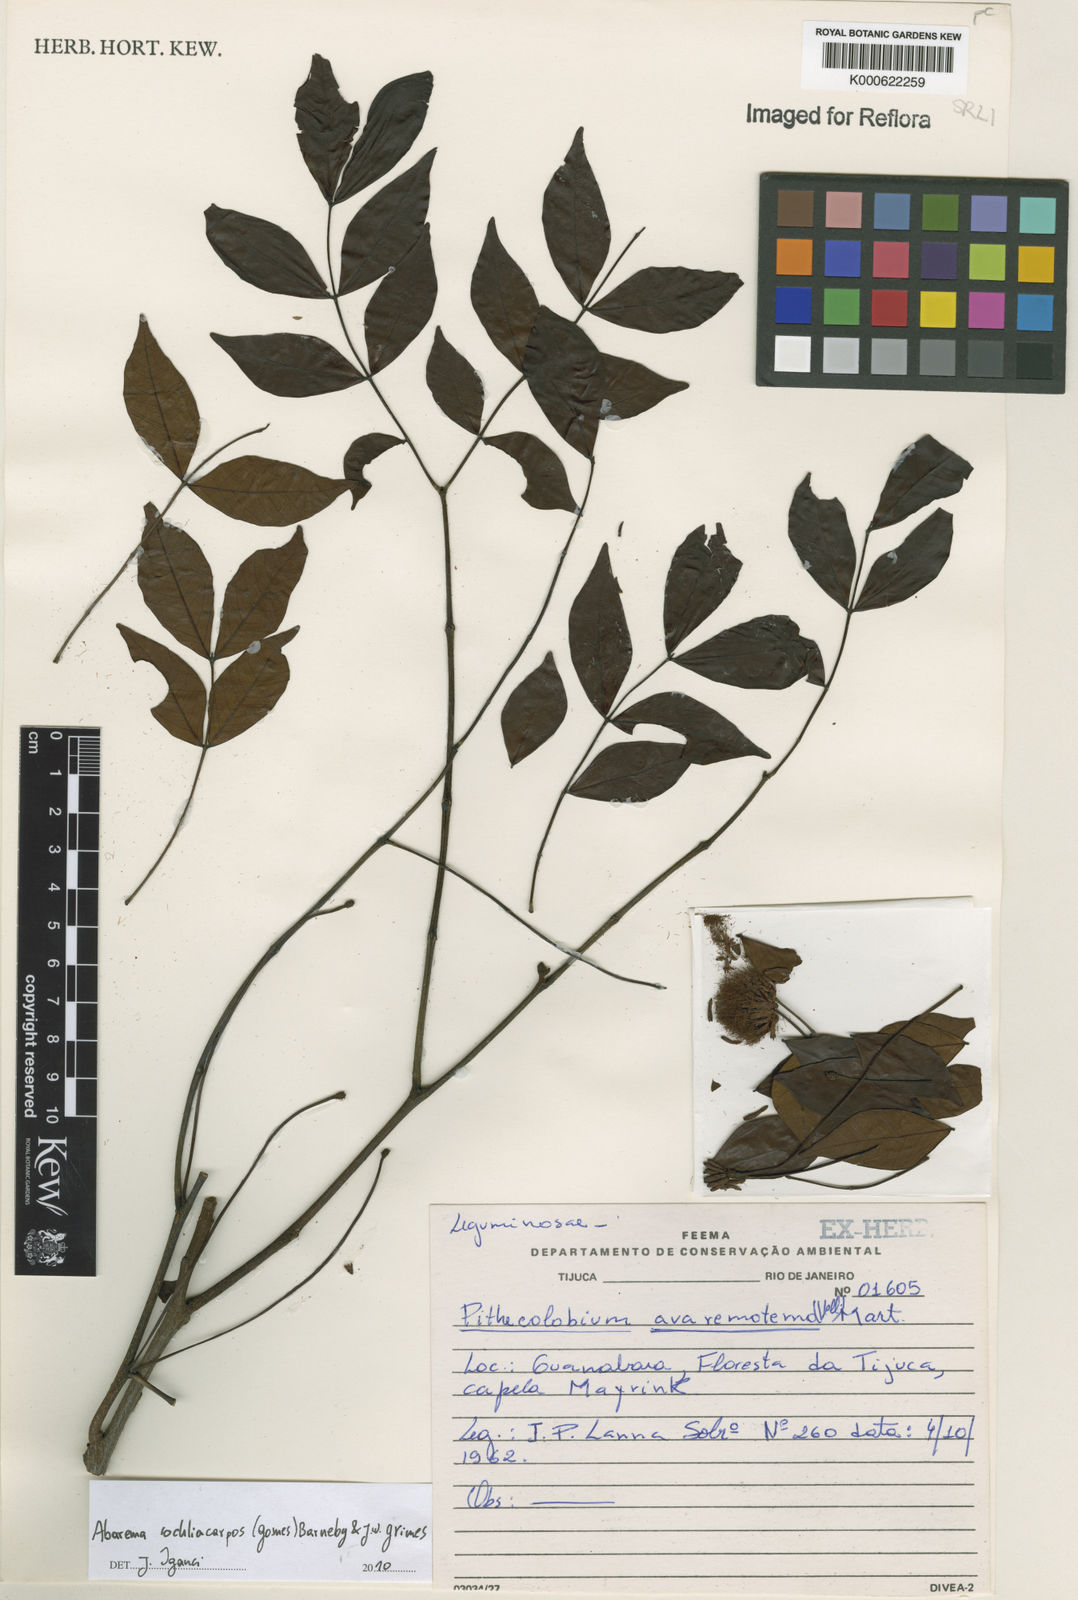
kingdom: Plantae
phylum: Tracheophyta
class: Magnoliopsida
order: Fabales
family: Fabaceae
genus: Abarema
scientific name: Abarema
